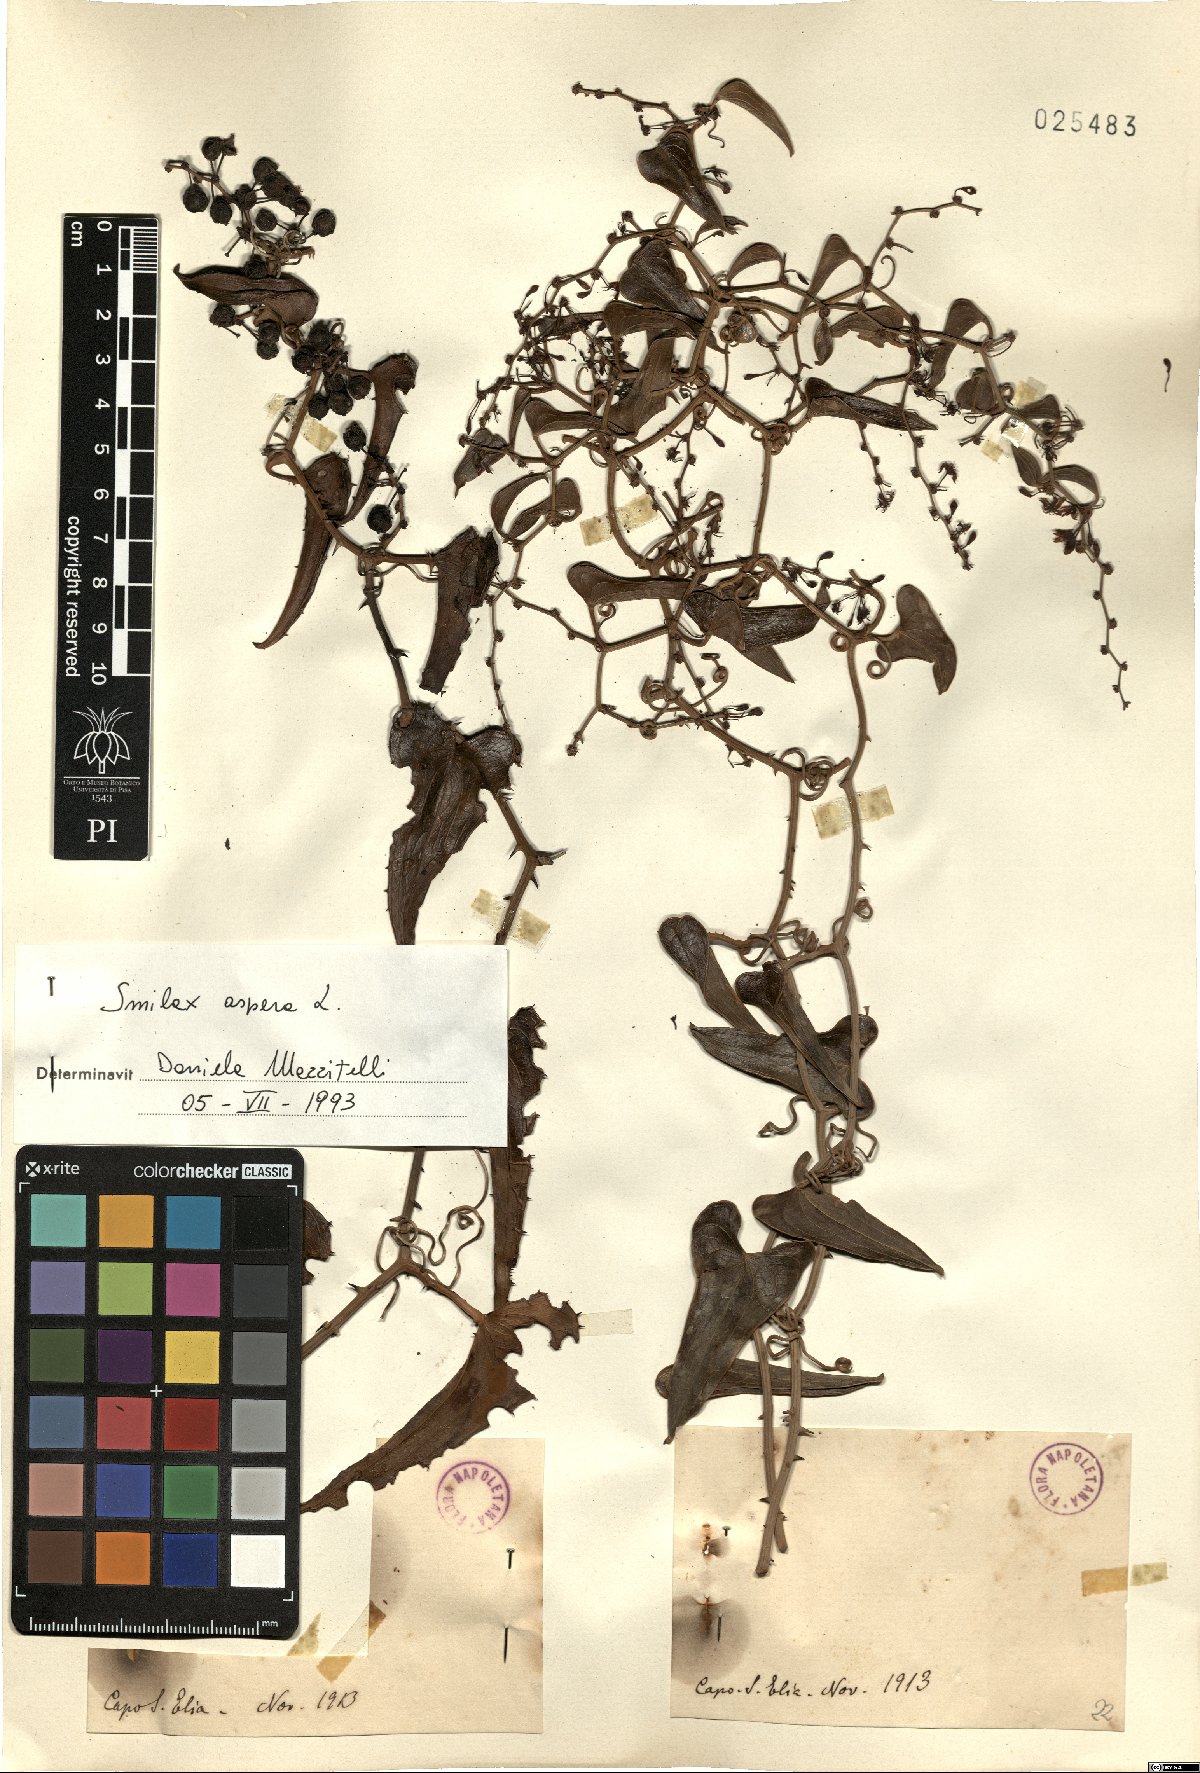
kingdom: Plantae
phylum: Tracheophyta
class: Liliopsida
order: Liliales
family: Smilacaceae
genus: Smilax
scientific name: Smilax aspera
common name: Common smilax
